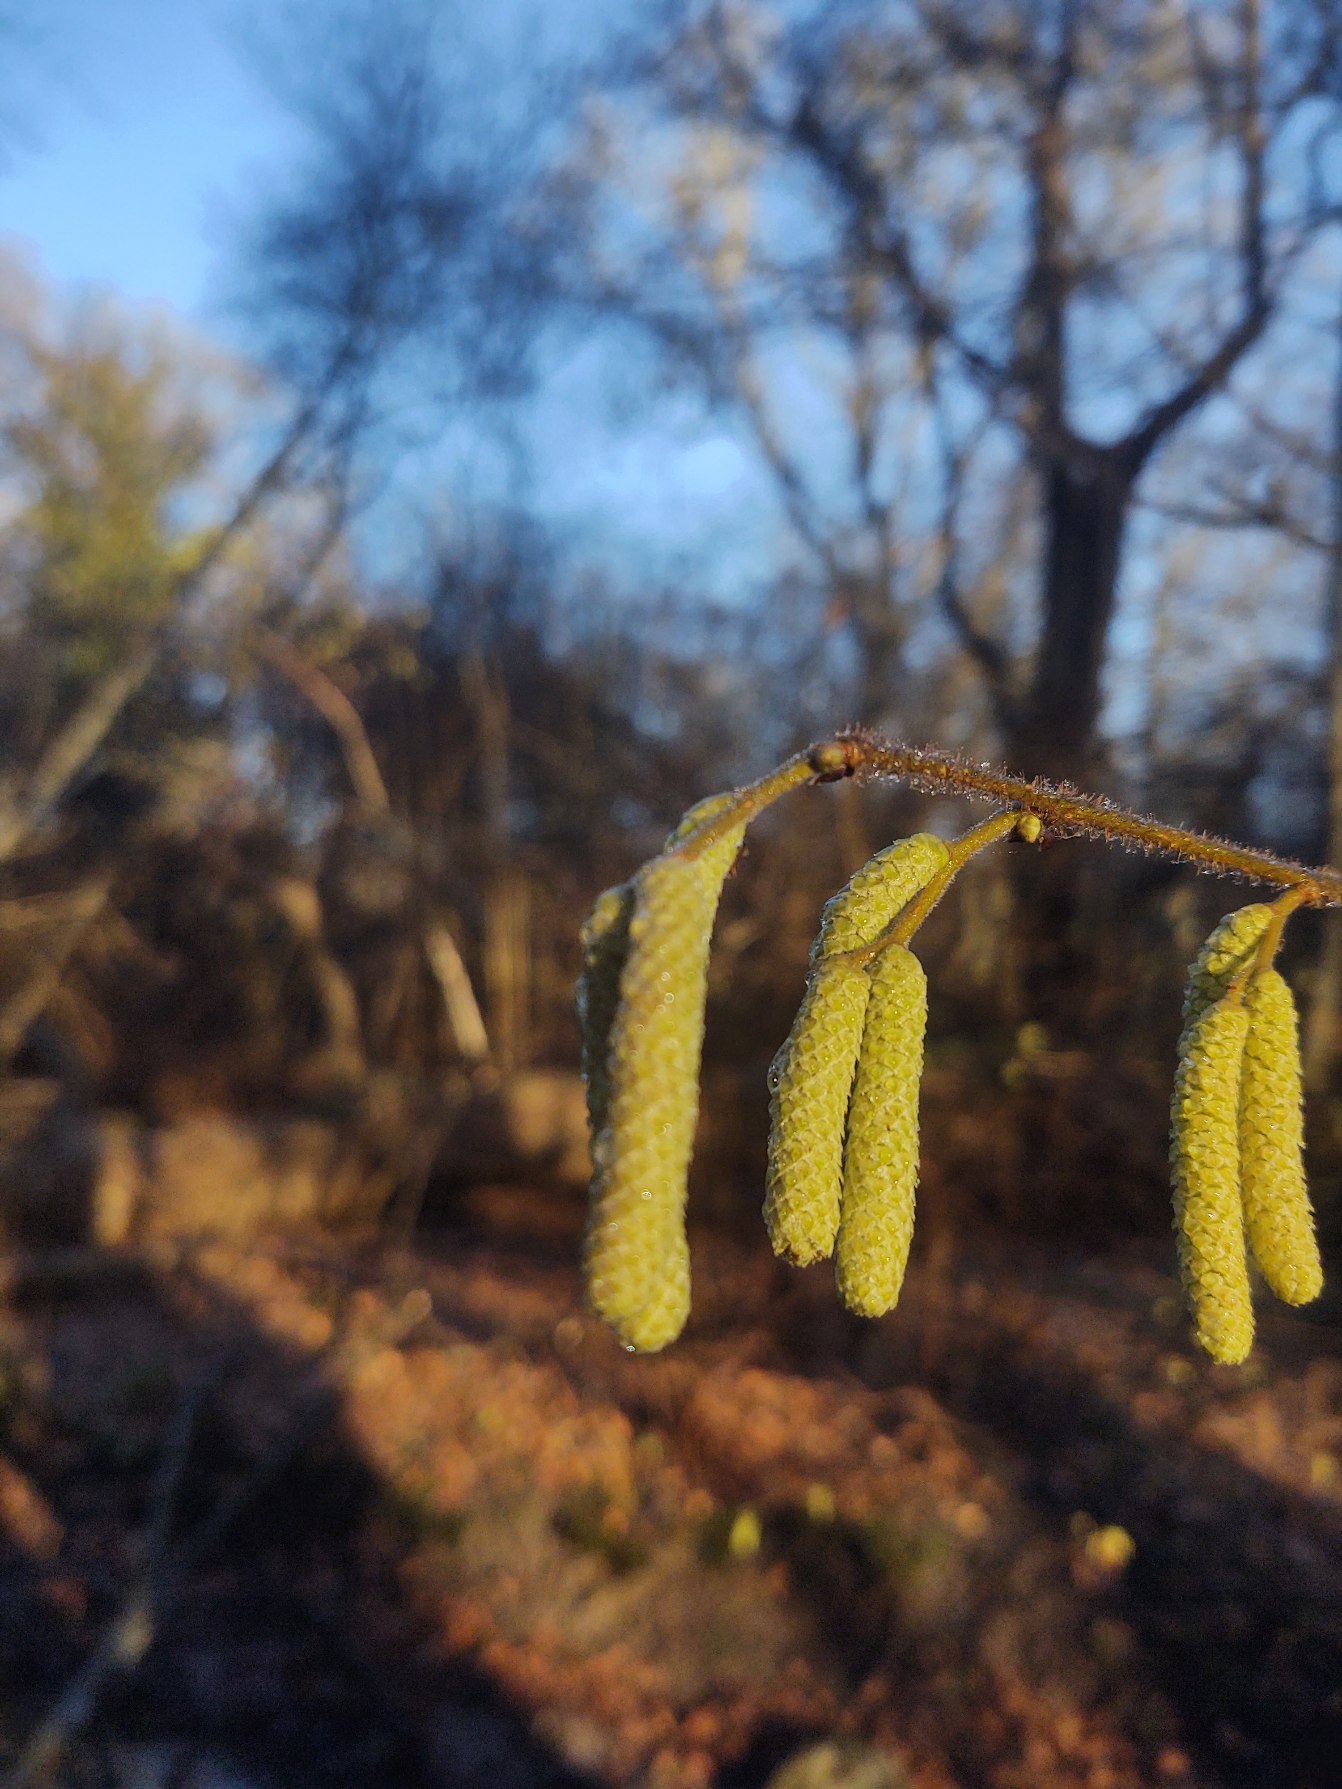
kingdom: Plantae
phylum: Tracheophyta
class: Magnoliopsida
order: Fagales
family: Betulaceae
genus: Corylus
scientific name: Corylus avellana
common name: Hassel
